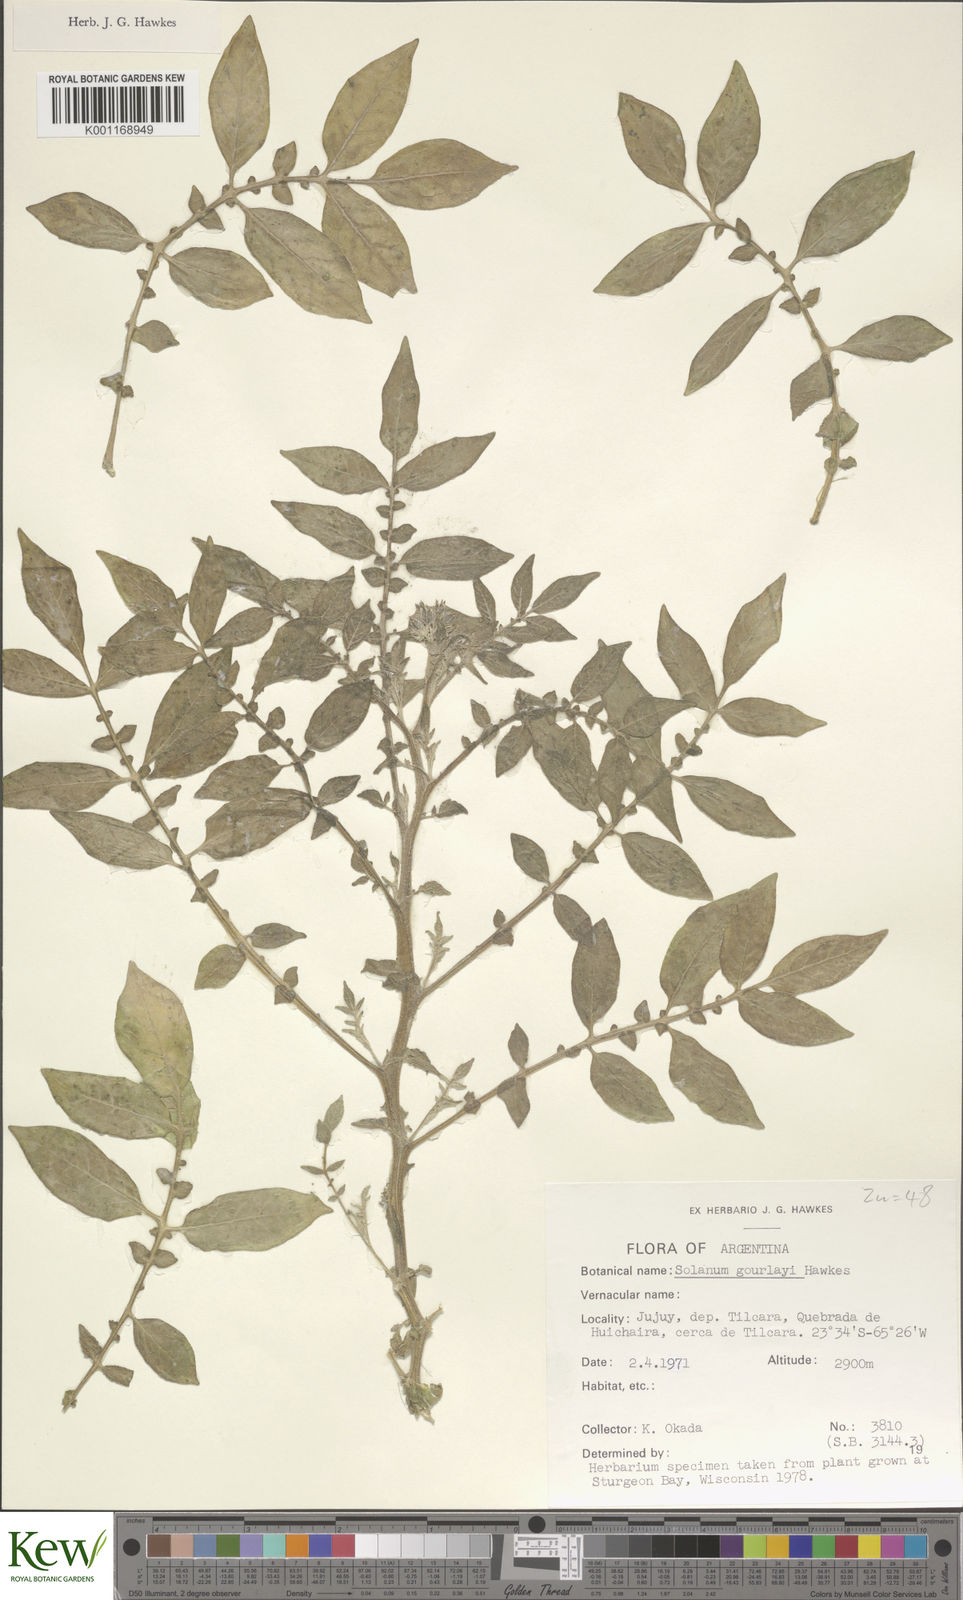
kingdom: Plantae
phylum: Tracheophyta
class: Magnoliopsida
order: Solanales
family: Solanaceae
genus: Solanum
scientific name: Solanum brevicaule
